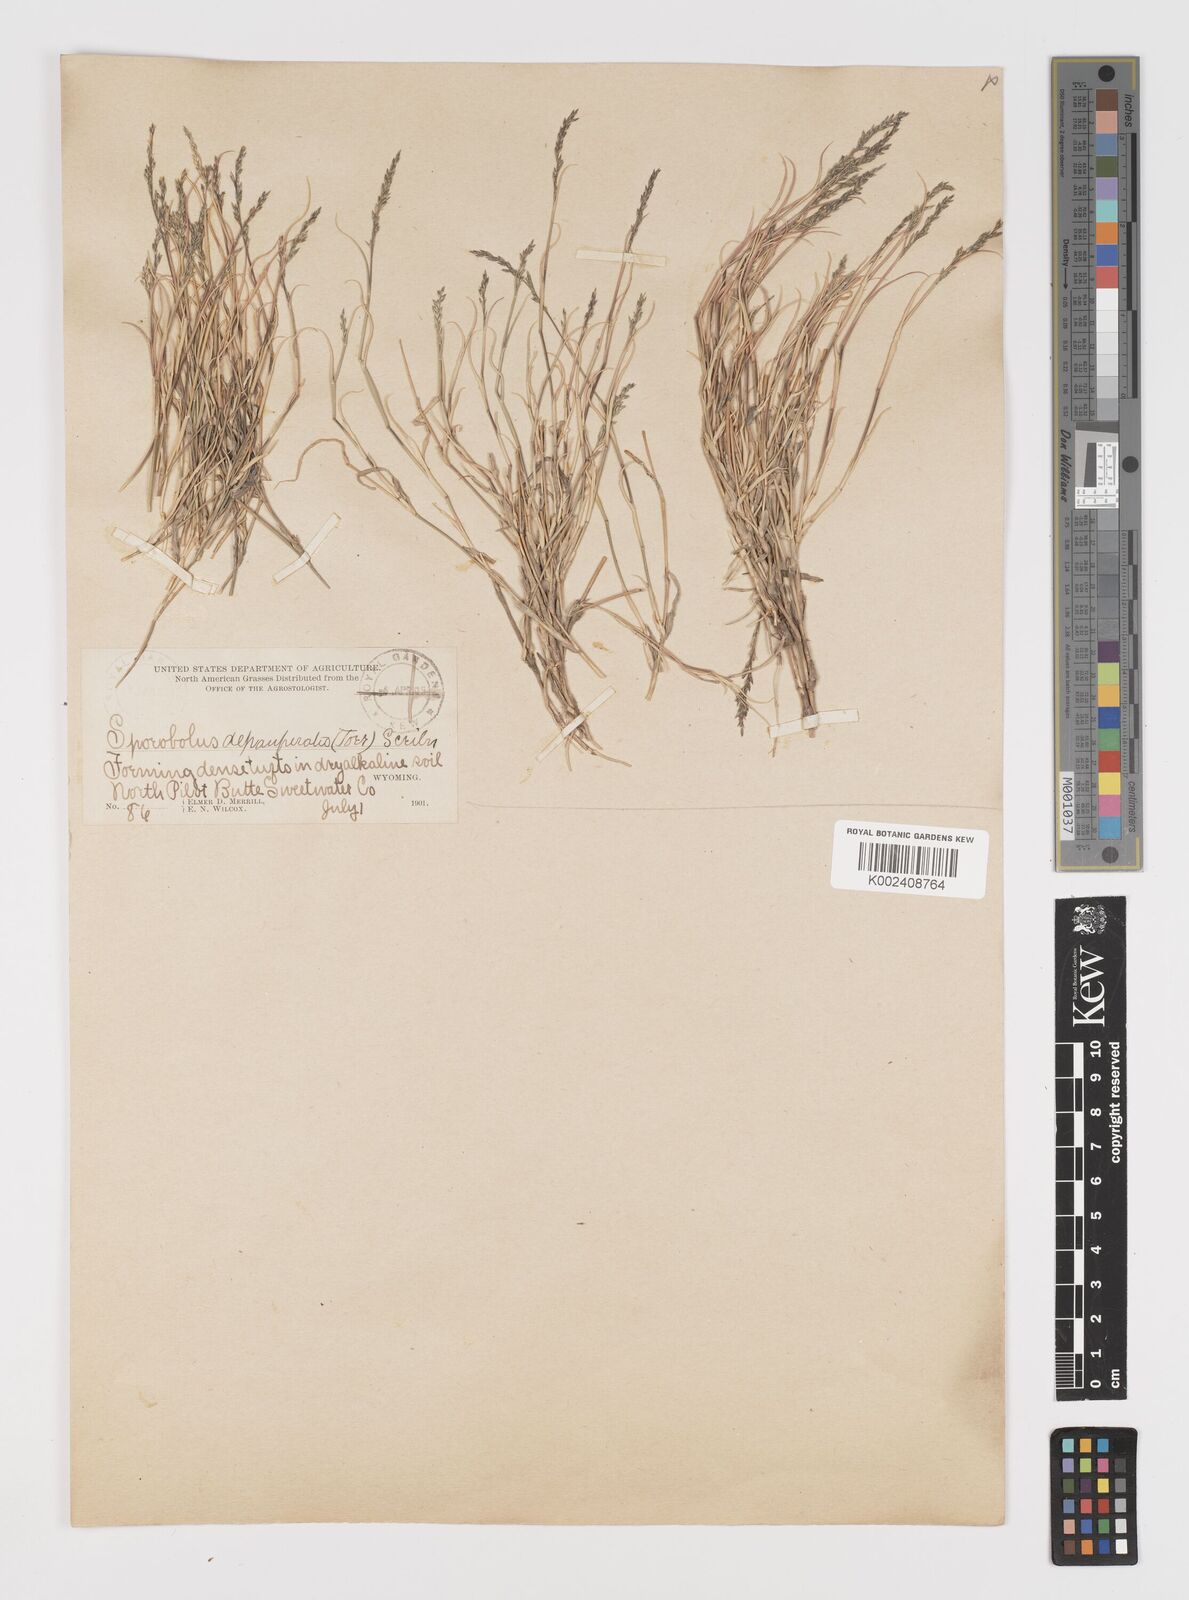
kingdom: Plantae
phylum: Tracheophyta
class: Liliopsida
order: Poales
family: Poaceae
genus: Muhlenbergia
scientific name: Muhlenbergia richardsonis
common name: Mat muhly
